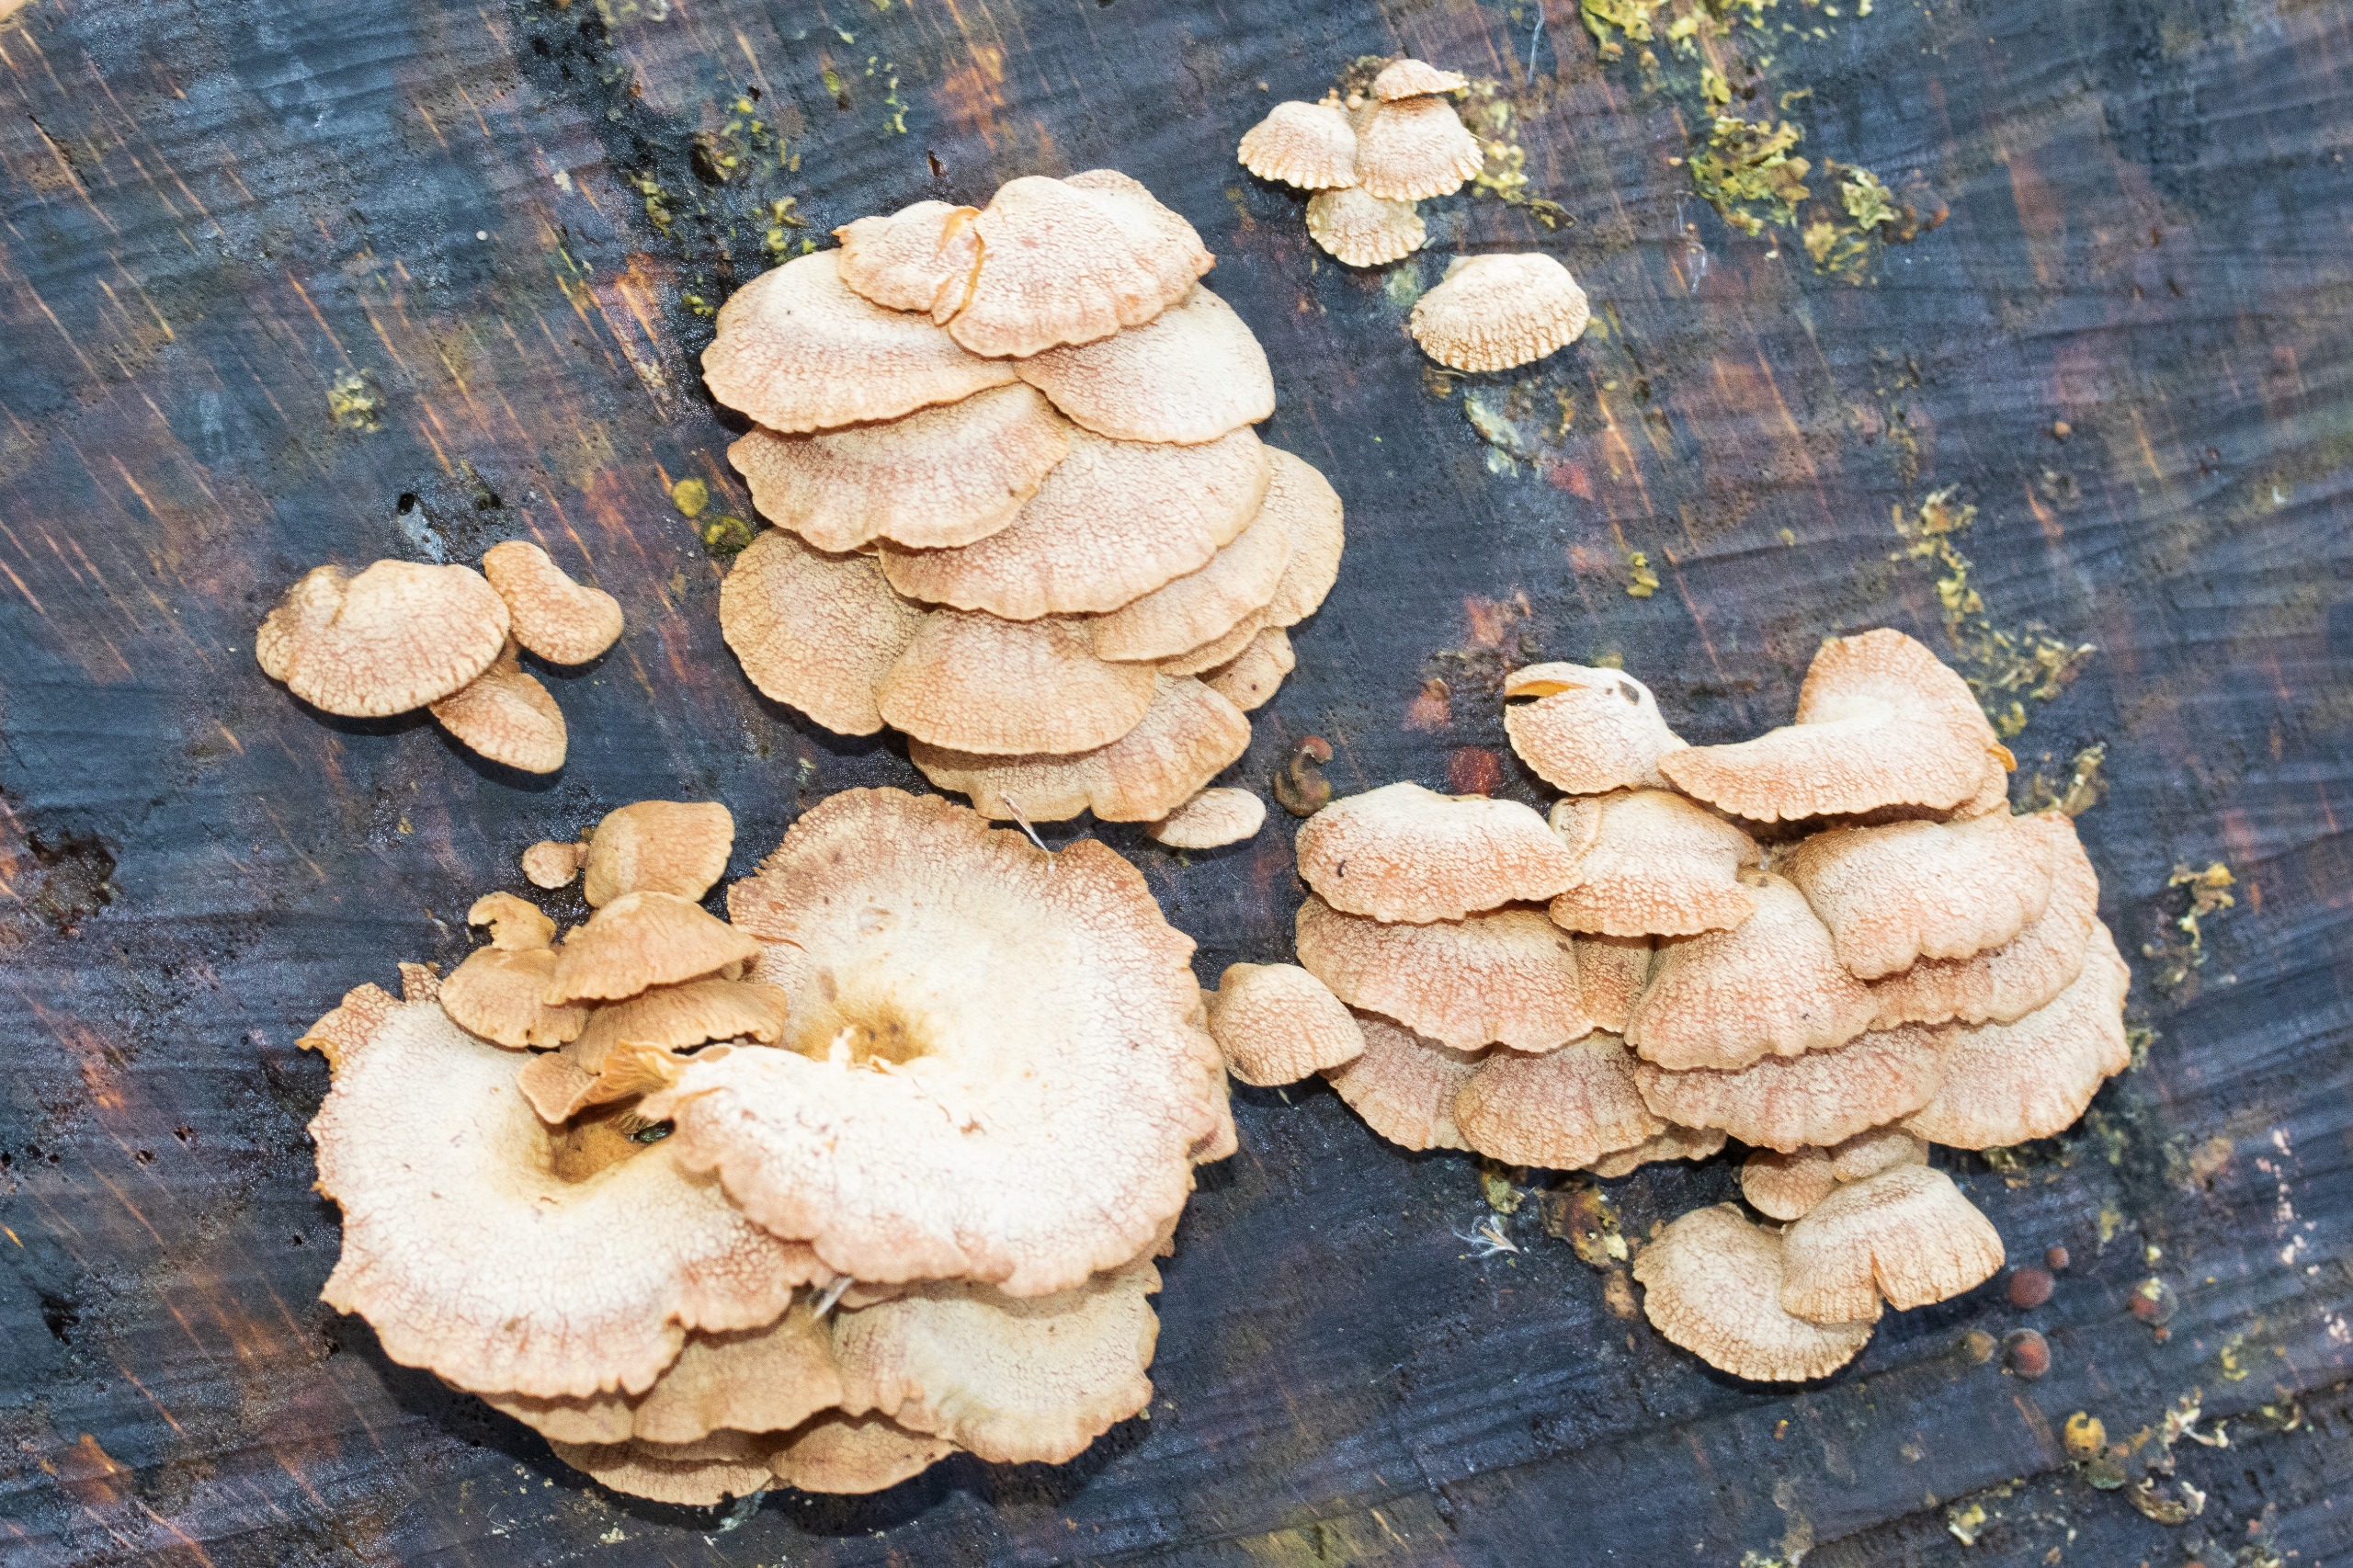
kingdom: Fungi
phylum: Basidiomycota
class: Agaricomycetes
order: Agaricales
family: Mycenaceae
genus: Panellus
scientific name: Panellus stipticus
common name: Kliddet epaulethat
